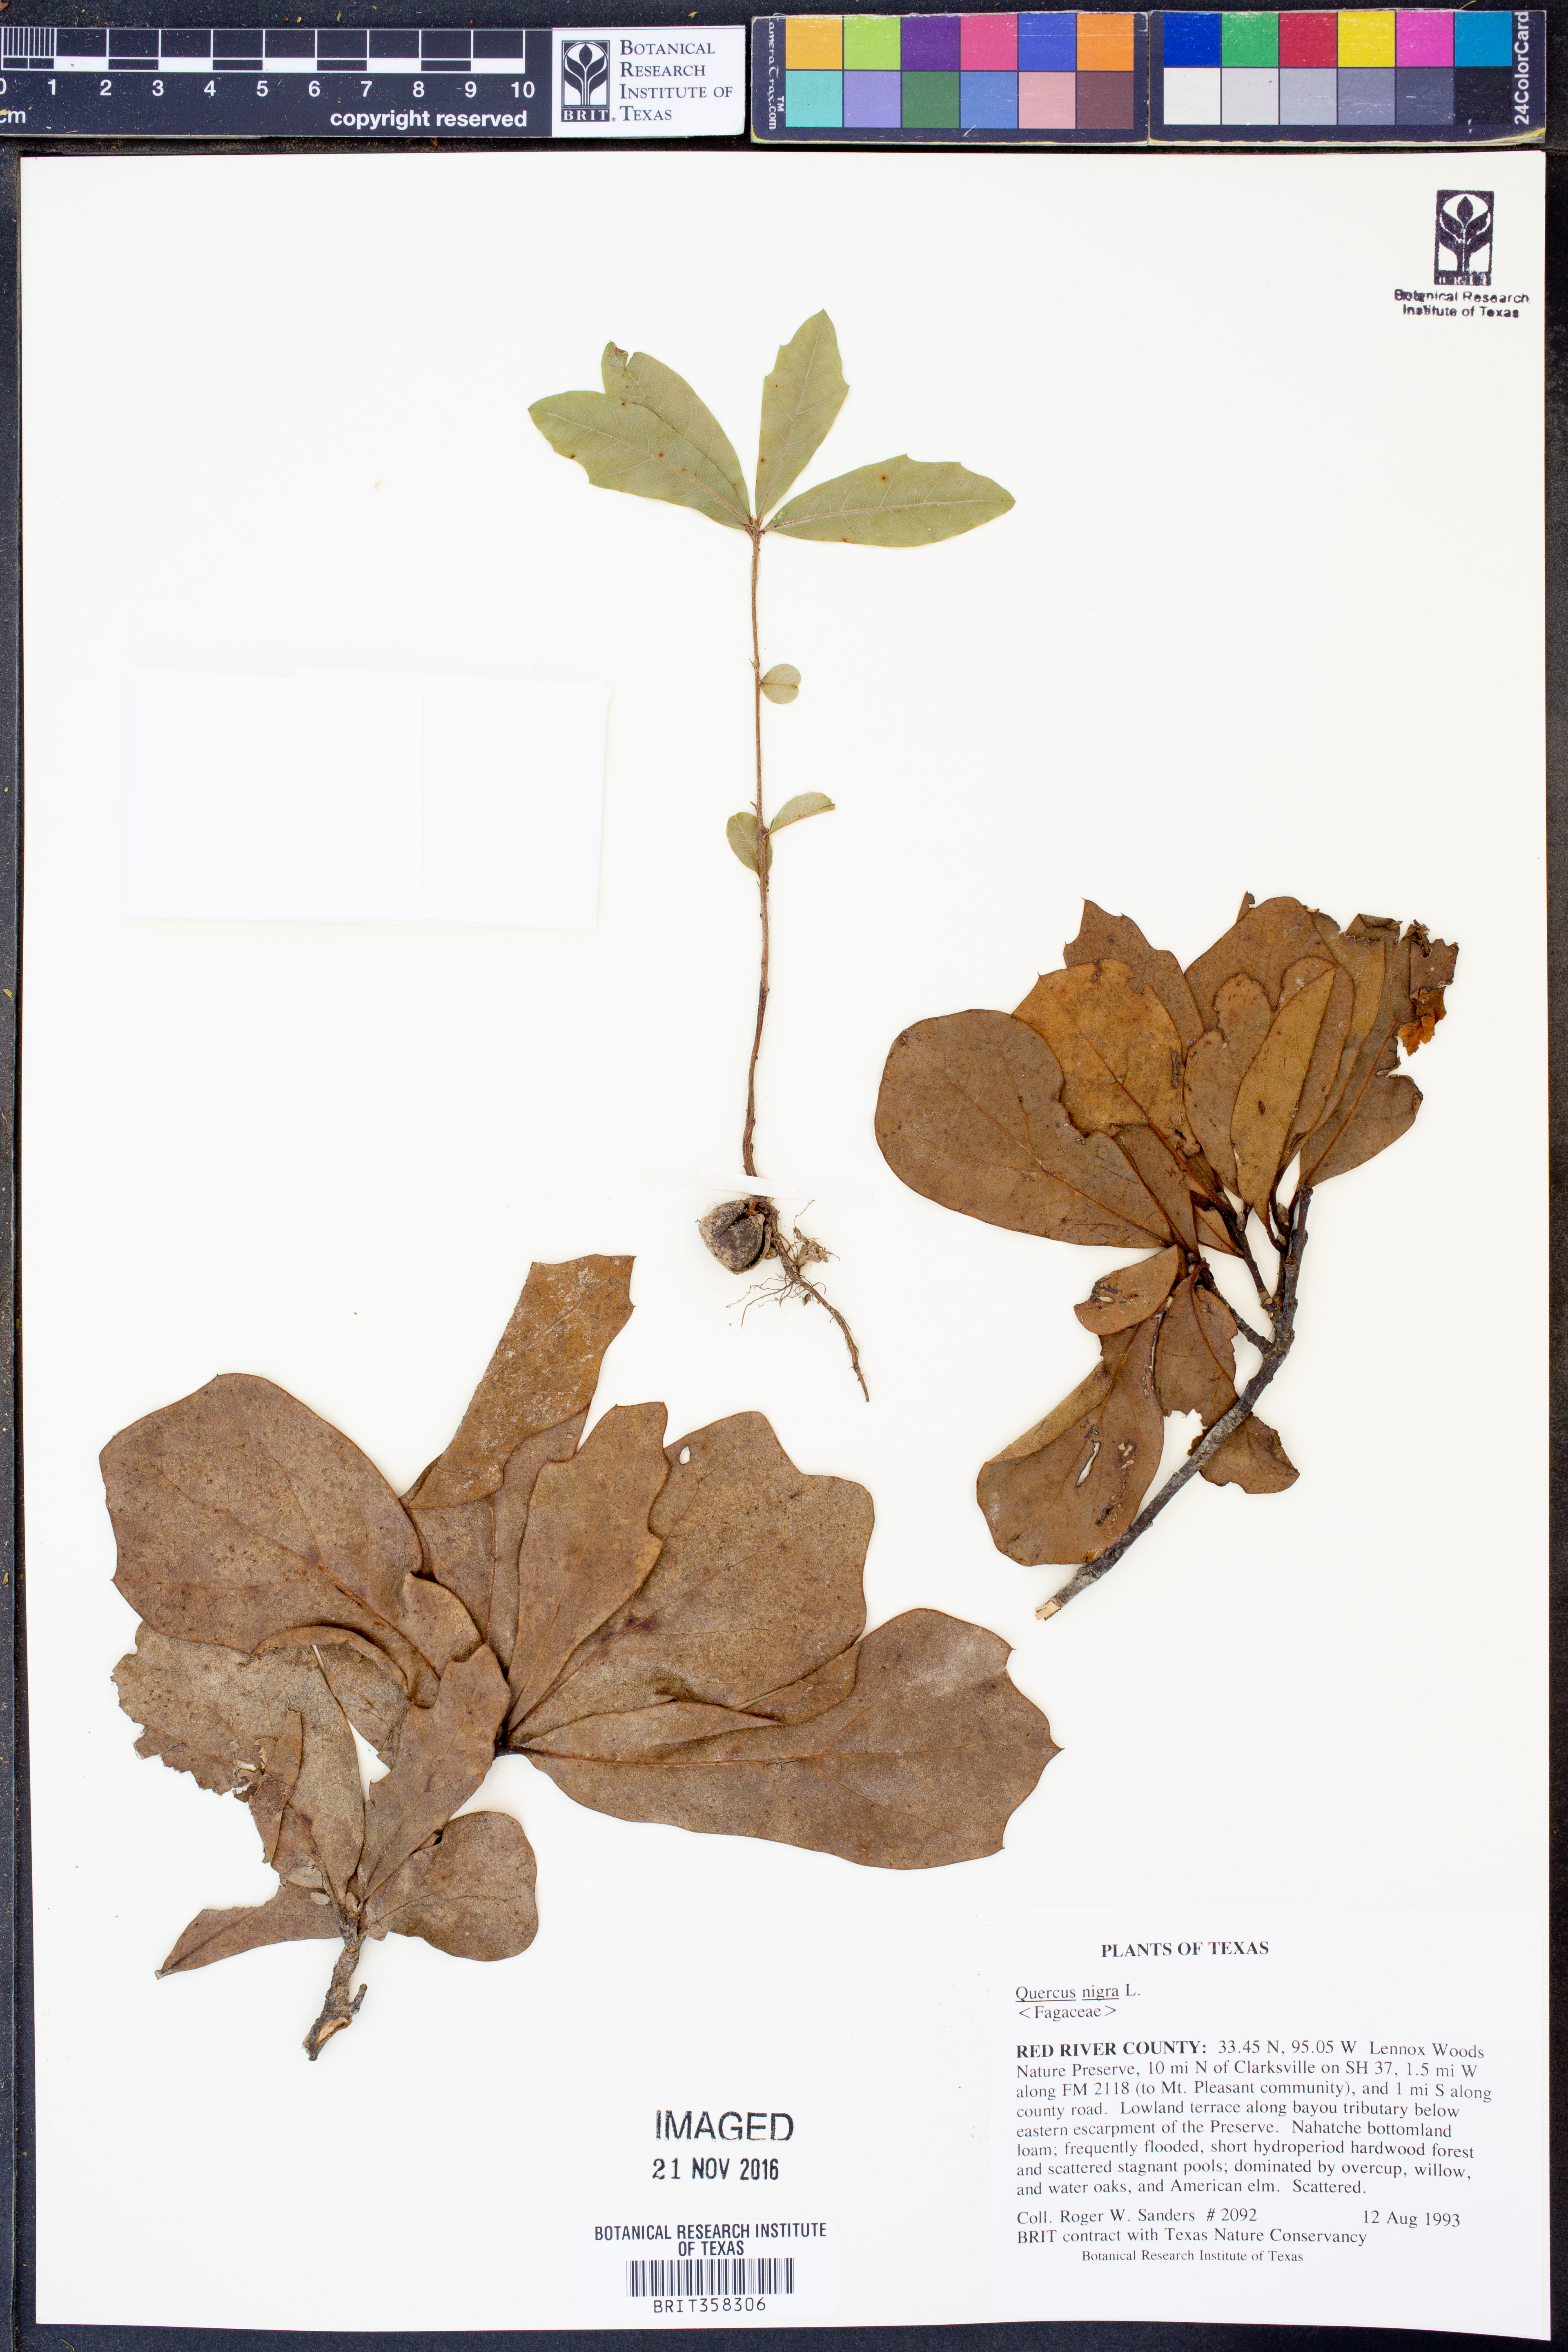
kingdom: Plantae
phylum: Tracheophyta
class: Magnoliopsida
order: Fagales
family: Fagaceae
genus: Quercus
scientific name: Quercus nigra
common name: Water oak
